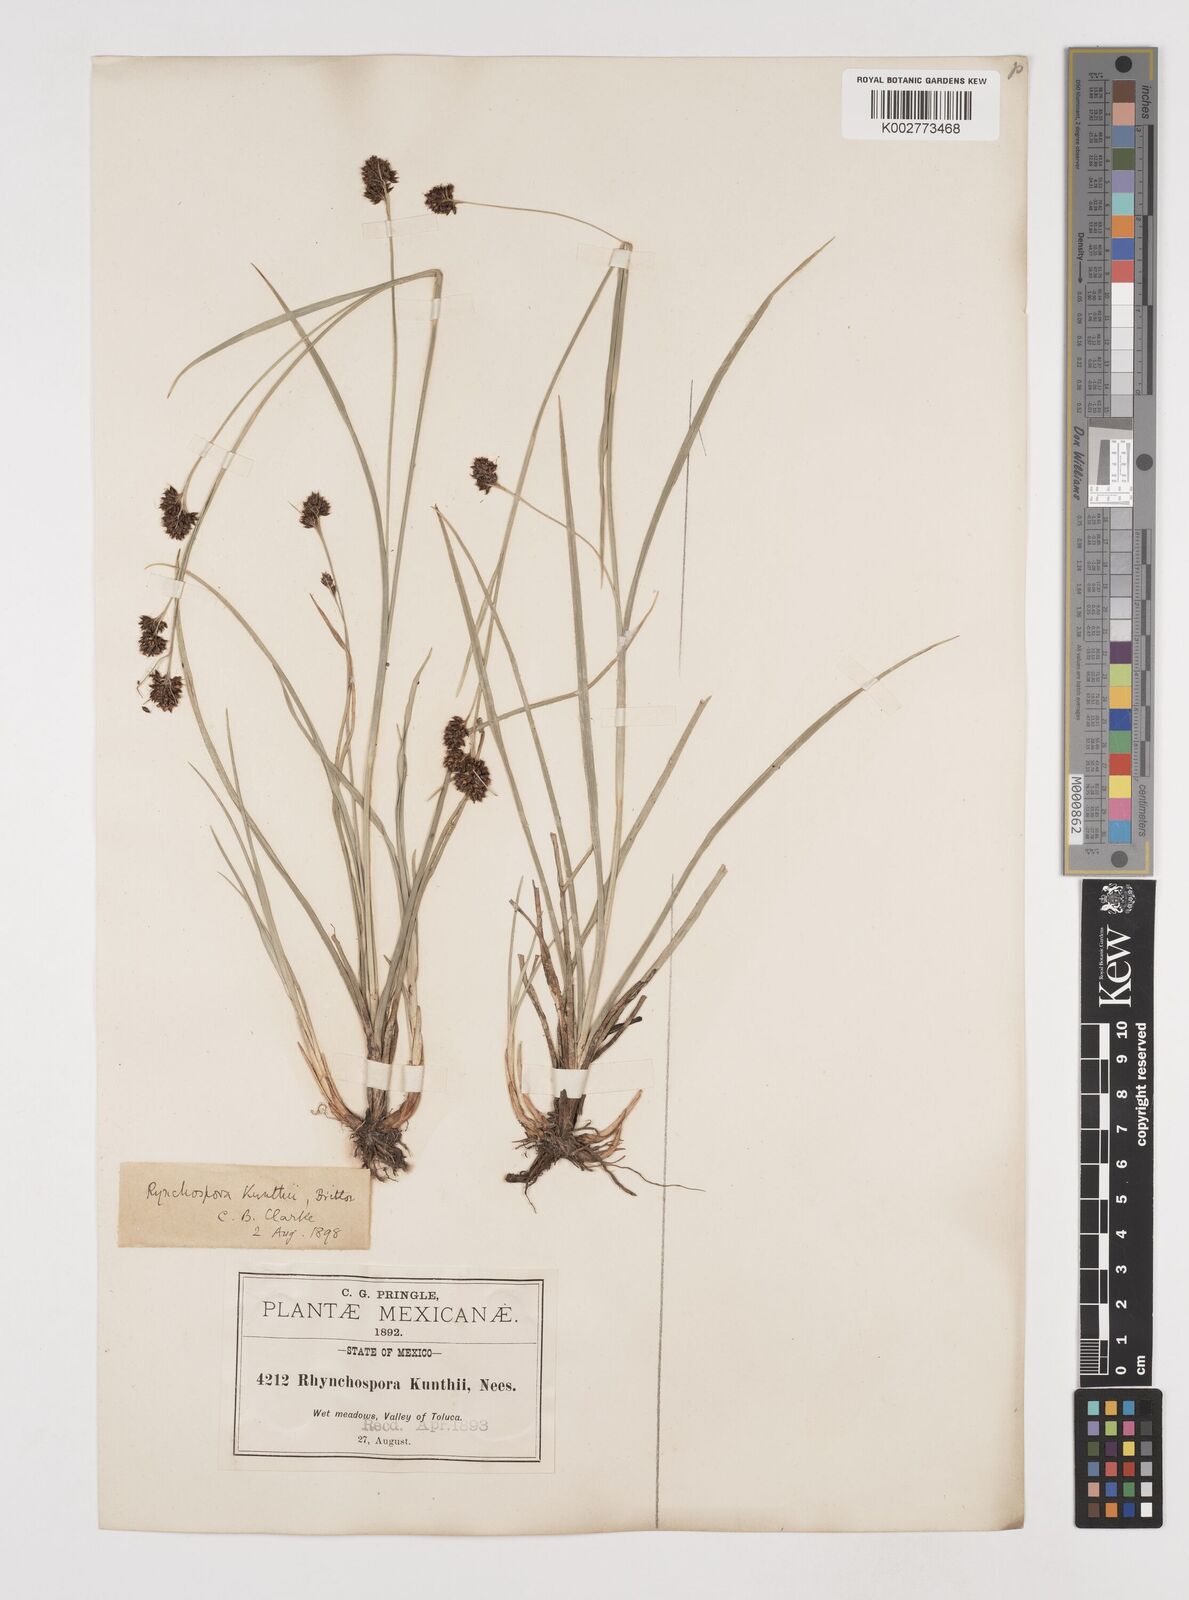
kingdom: Plantae
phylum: Tracheophyta
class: Liliopsida
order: Poales
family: Cyperaceae
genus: Rhynchospora
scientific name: Rhynchospora kunthii
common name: Kunth's beaksedge
